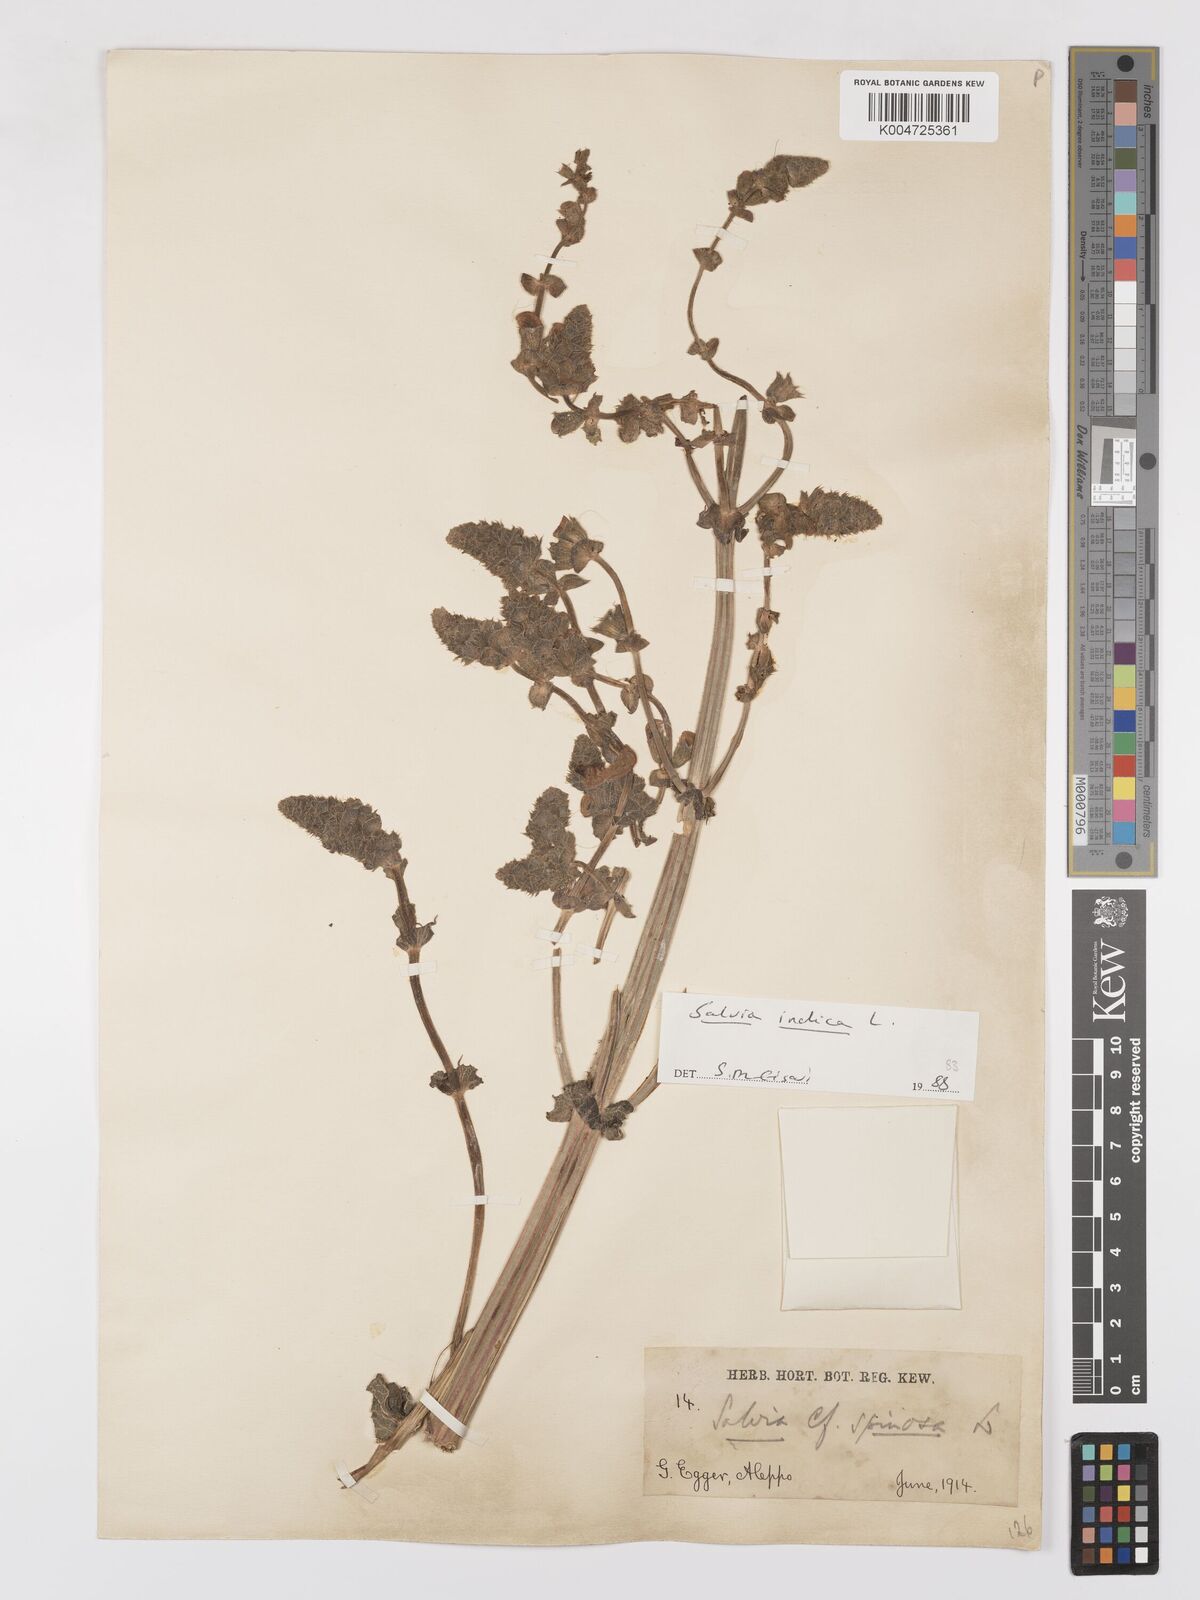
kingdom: Plantae
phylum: Tracheophyta
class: Magnoliopsida
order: Lamiales
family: Lamiaceae
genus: Salvia
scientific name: Salvia indica
